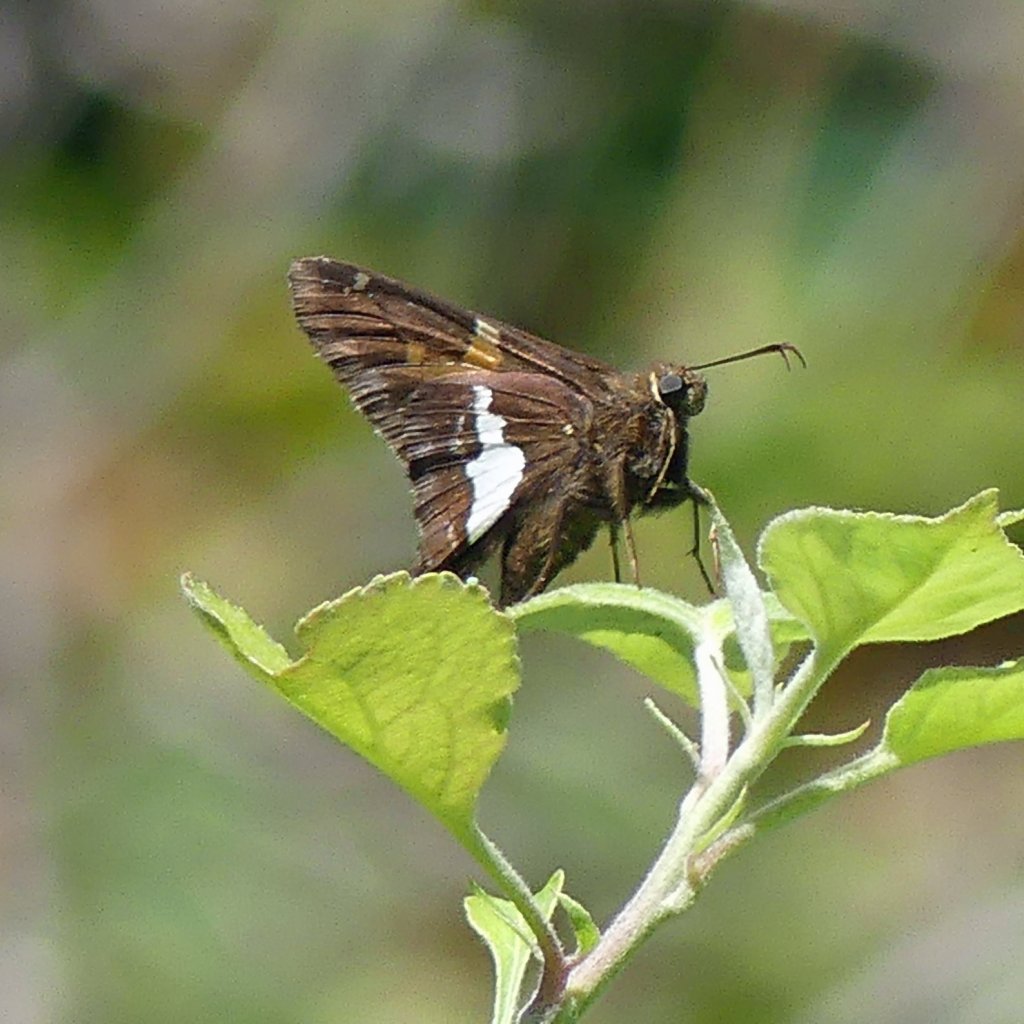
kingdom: Animalia
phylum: Arthropoda
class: Insecta
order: Lepidoptera
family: Hesperiidae
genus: Epargyreus
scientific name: Epargyreus clarus
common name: Silver-spotted Skipper
